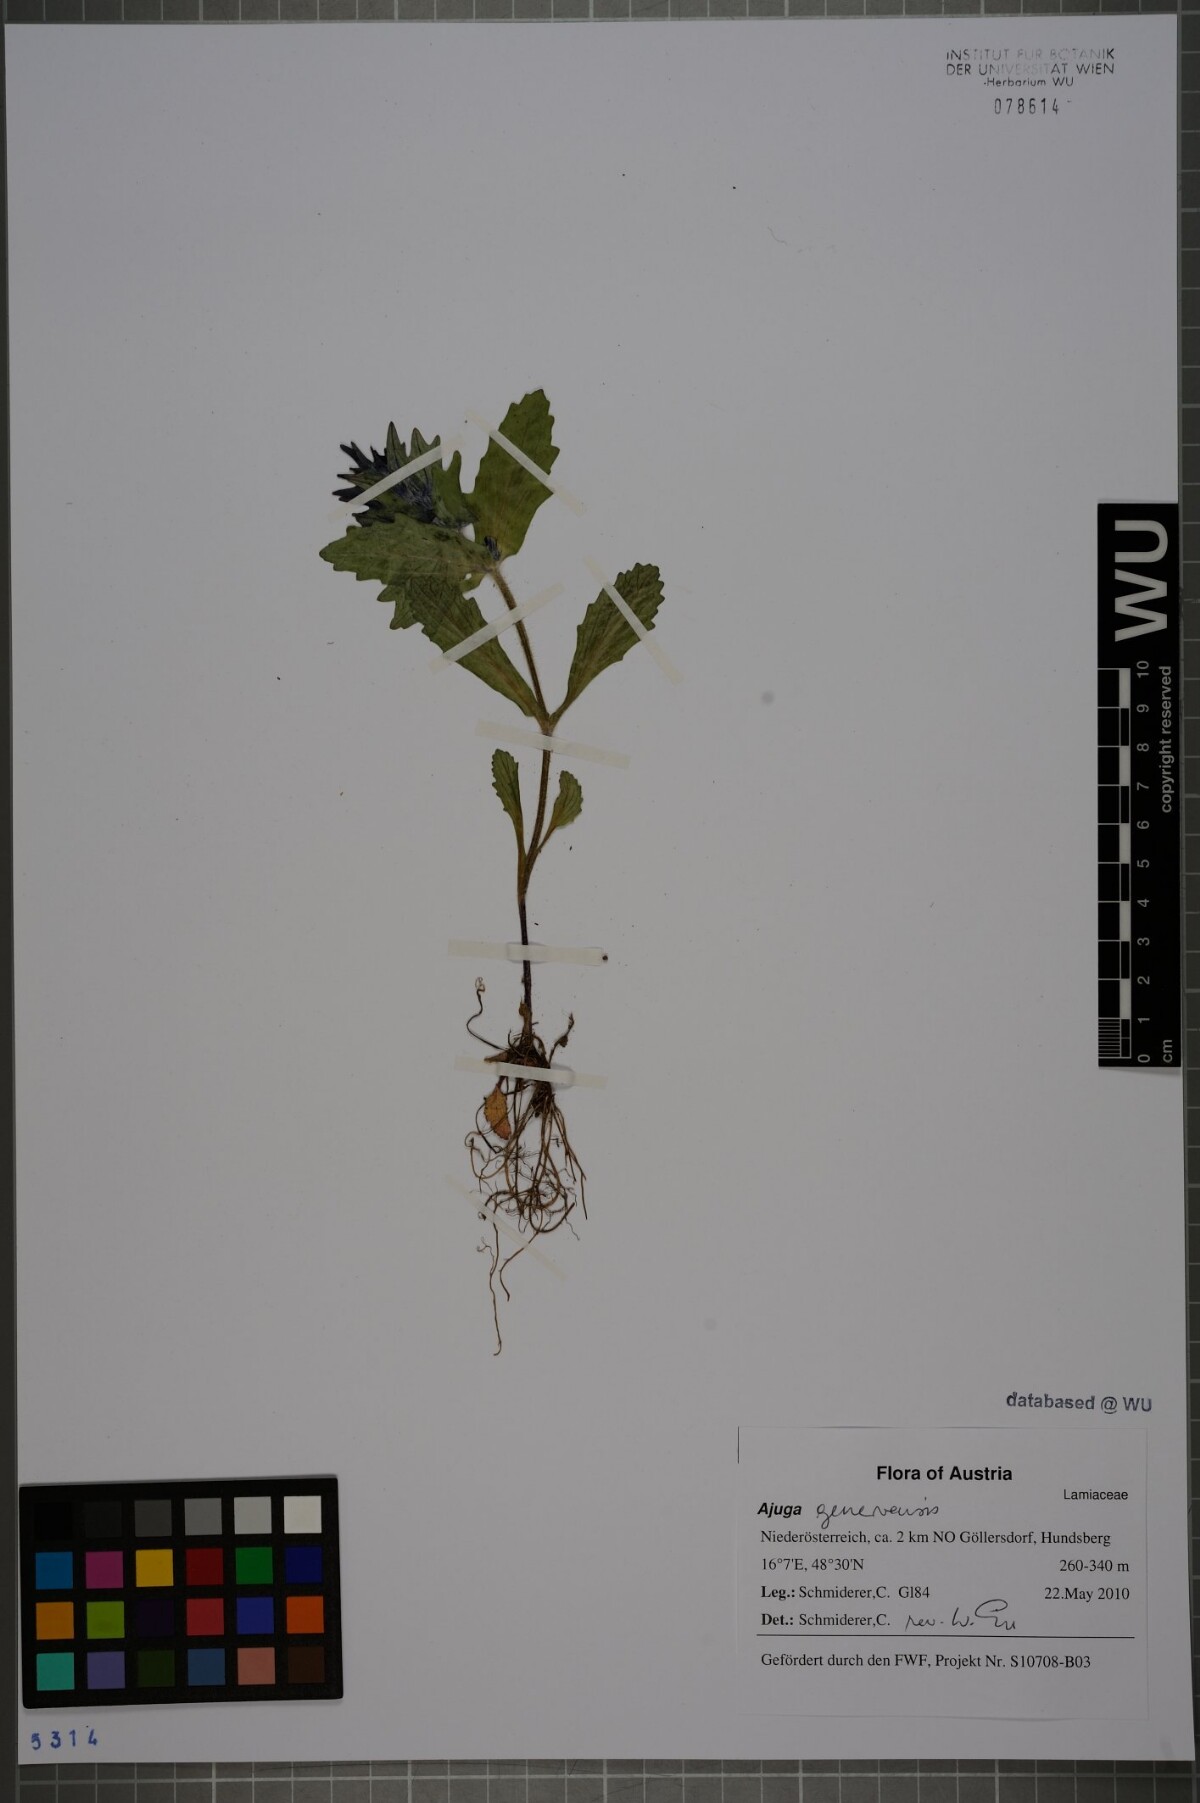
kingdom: Plantae
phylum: Tracheophyta
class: Magnoliopsida
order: Lamiales
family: Lamiaceae
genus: Ajuga
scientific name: Ajuga genevensis
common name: Blue bugle
